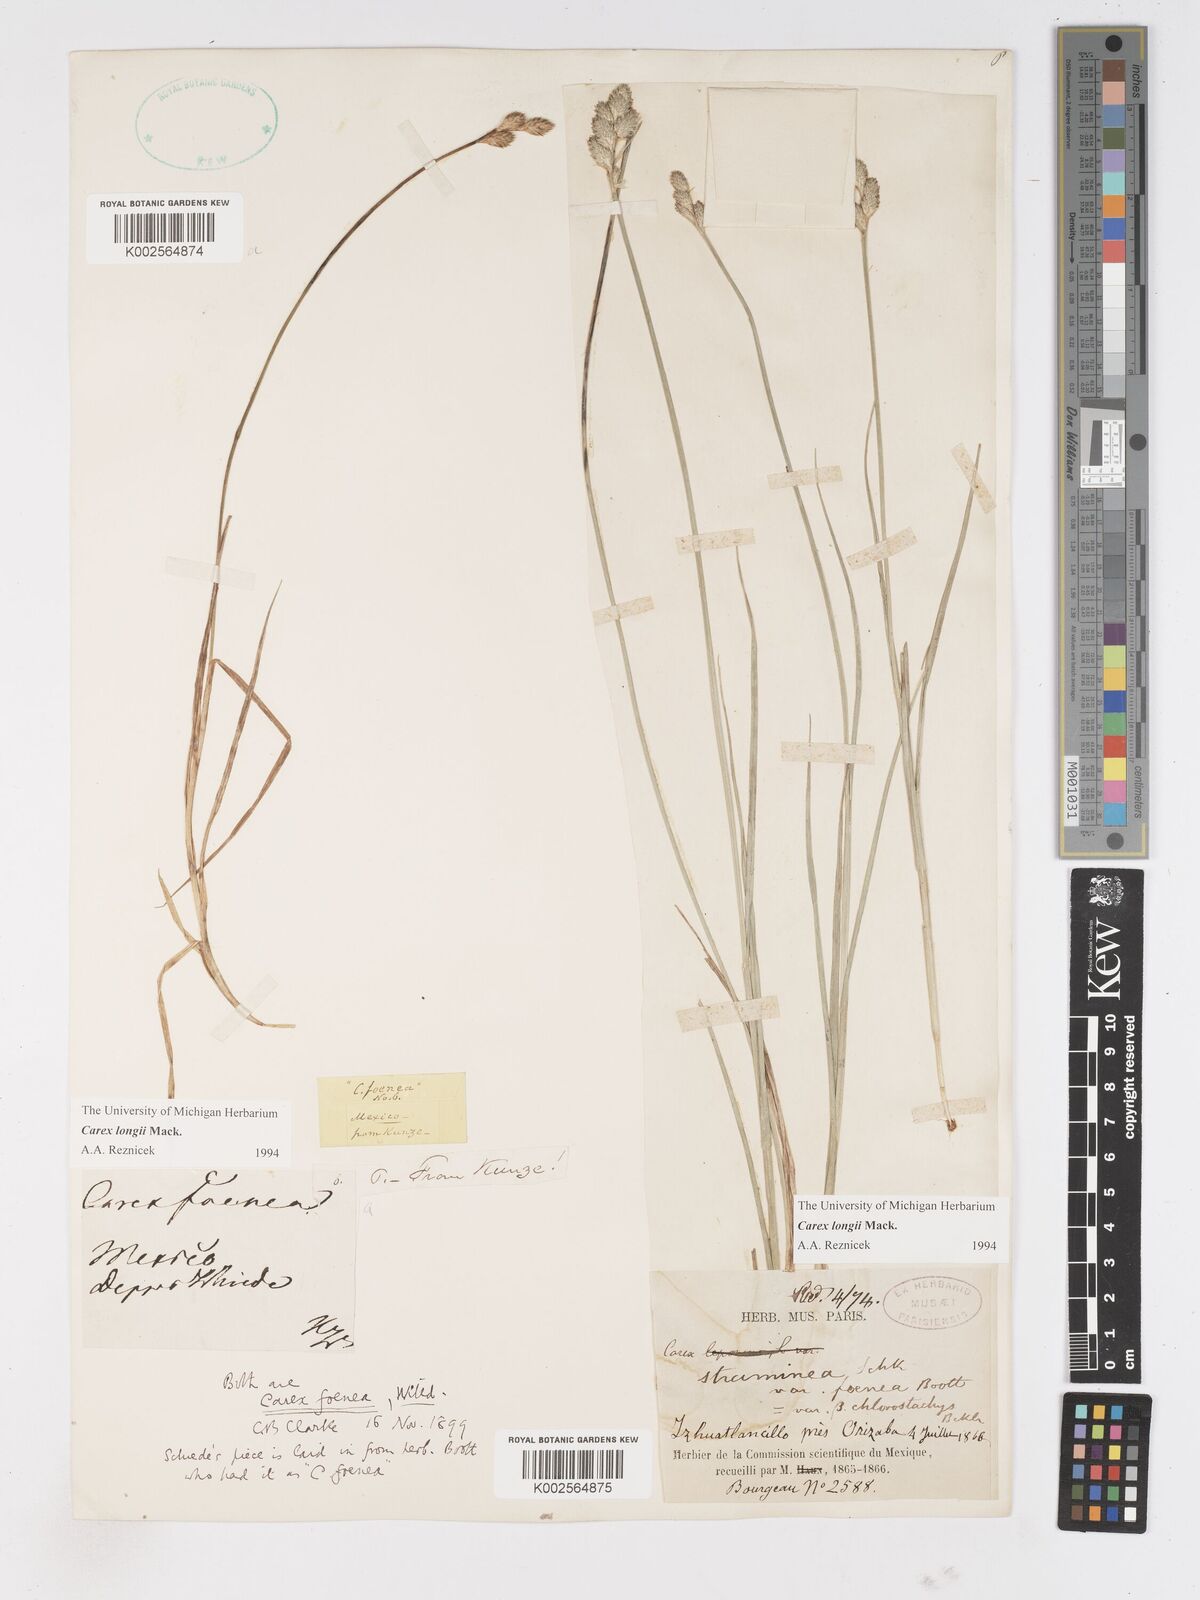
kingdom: Plantae
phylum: Tracheophyta
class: Liliopsida
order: Poales
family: Cyperaceae
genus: Carex
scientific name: Carex longii
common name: Long's sedge
